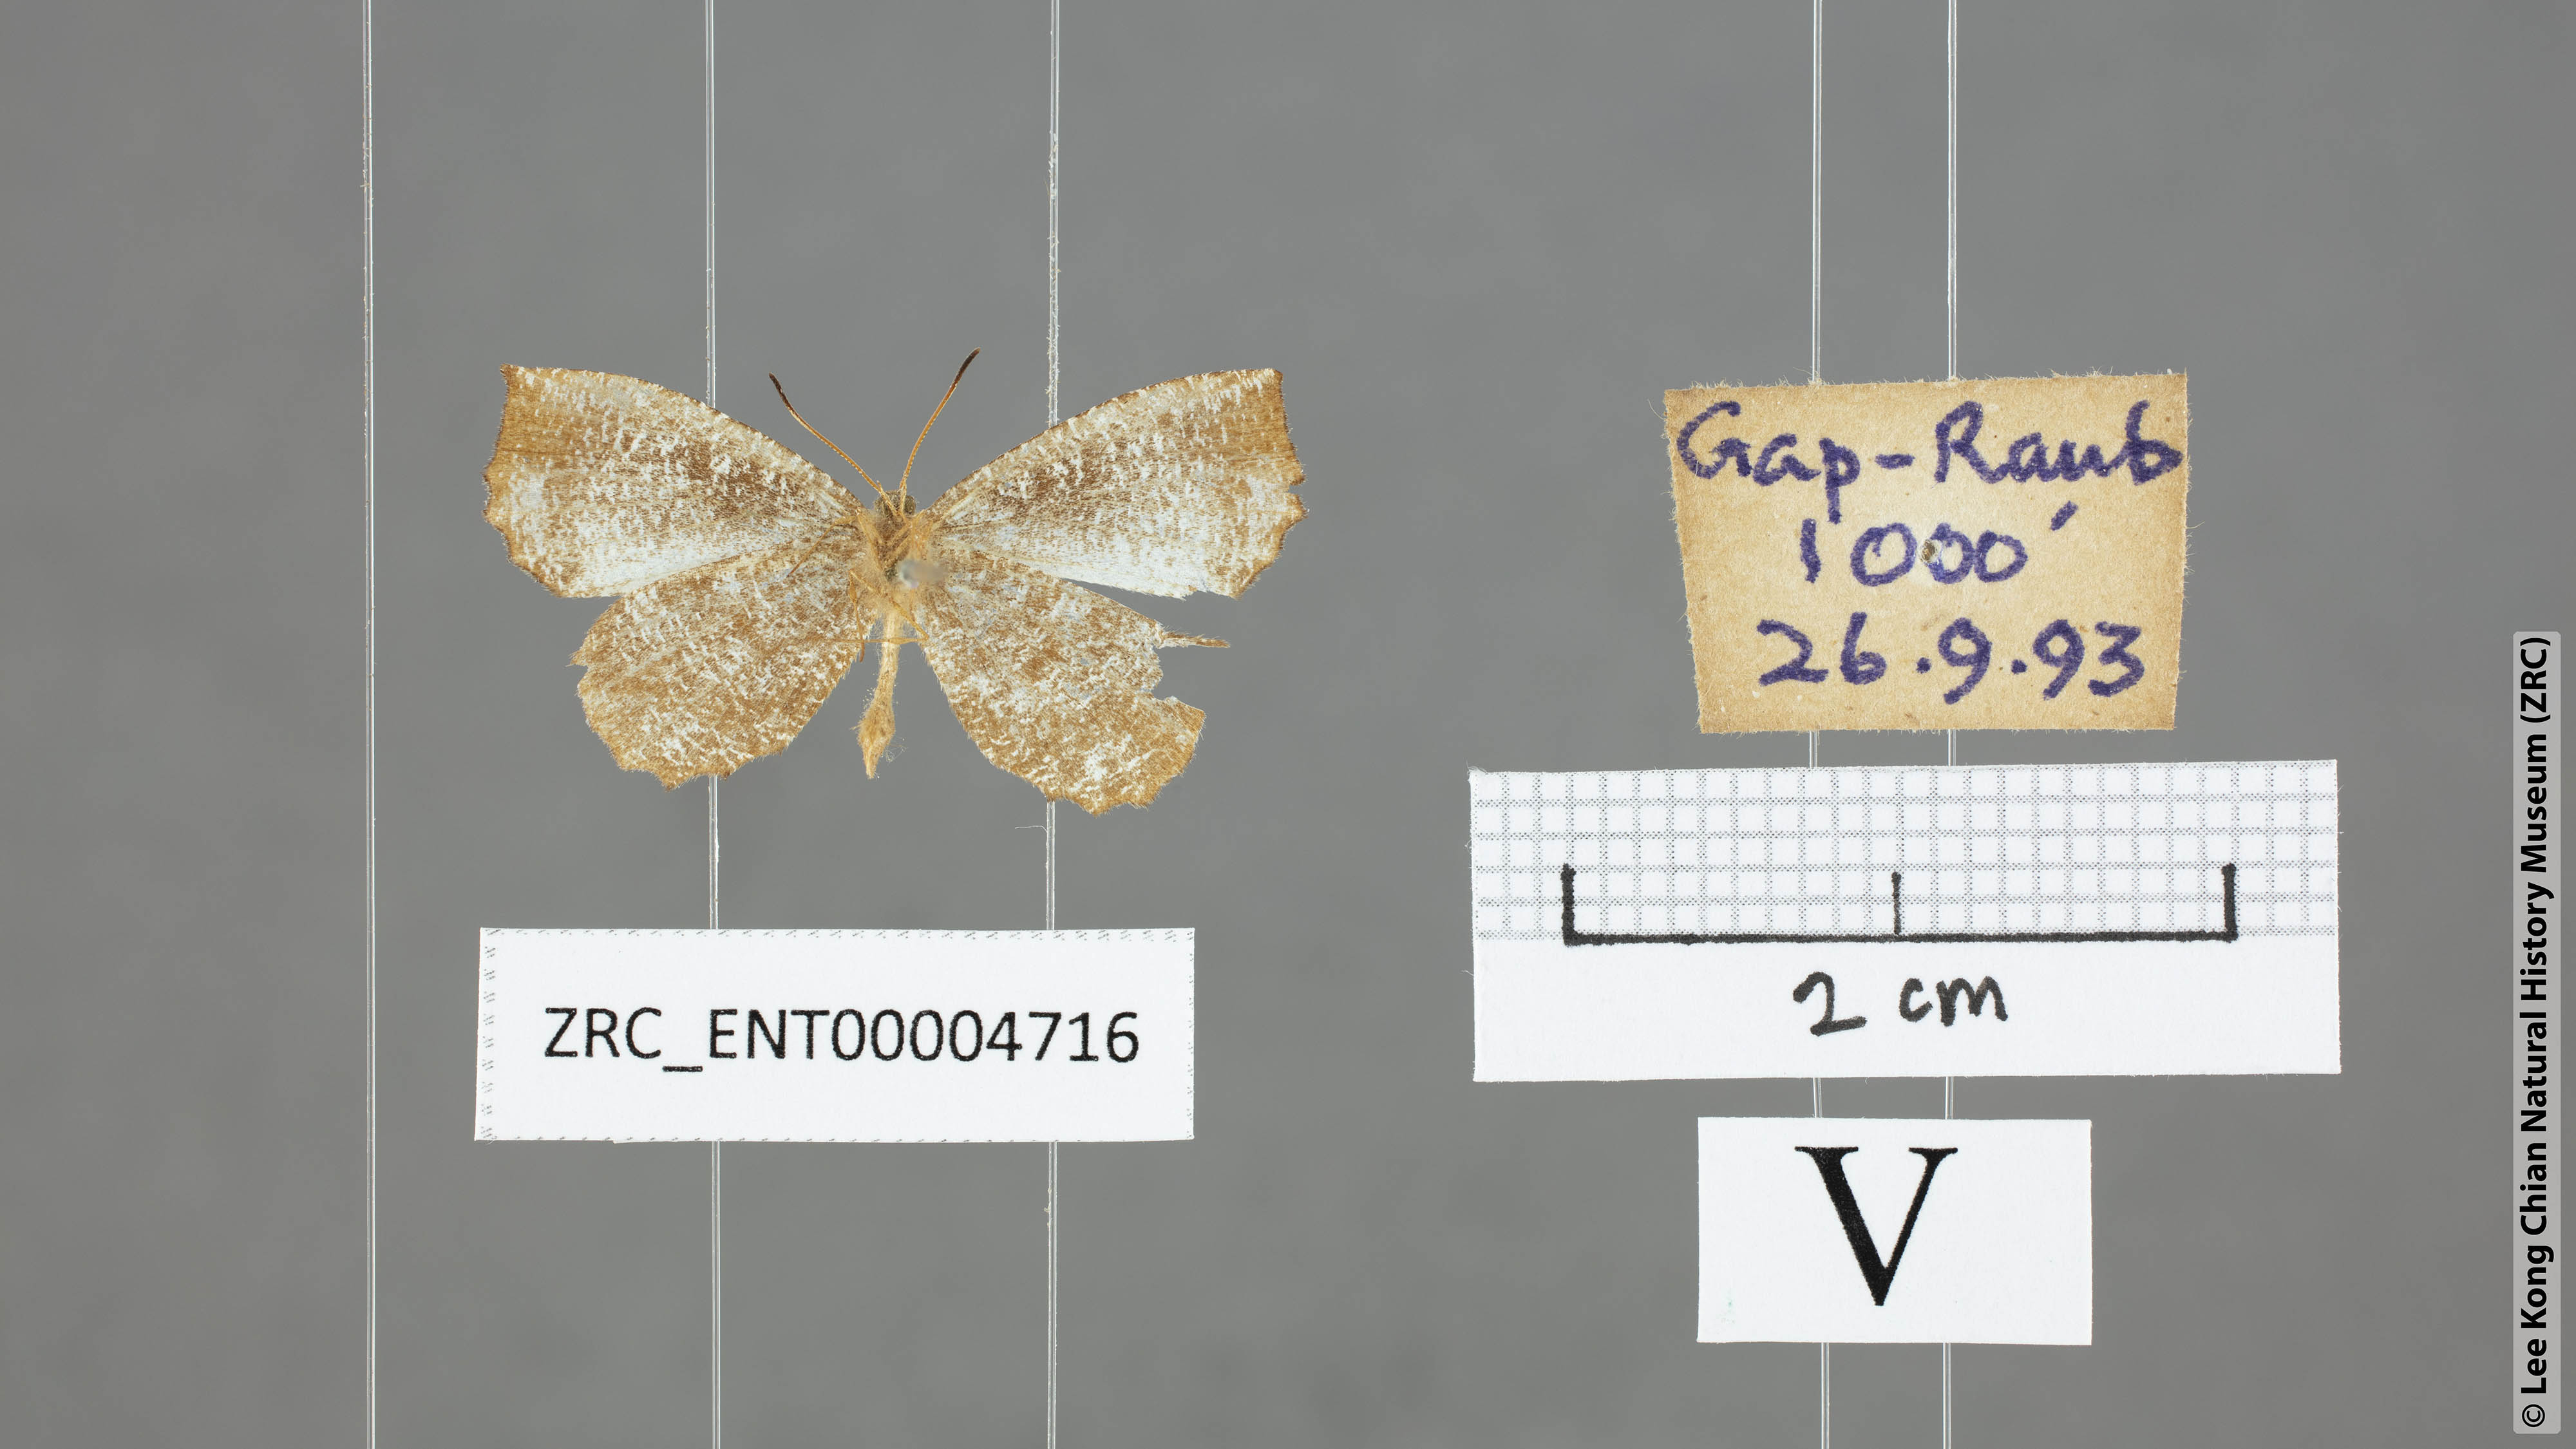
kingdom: Animalia
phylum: Arthropoda
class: Insecta
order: Lepidoptera
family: Lycaenidae
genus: Logania
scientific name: Logania malayica
